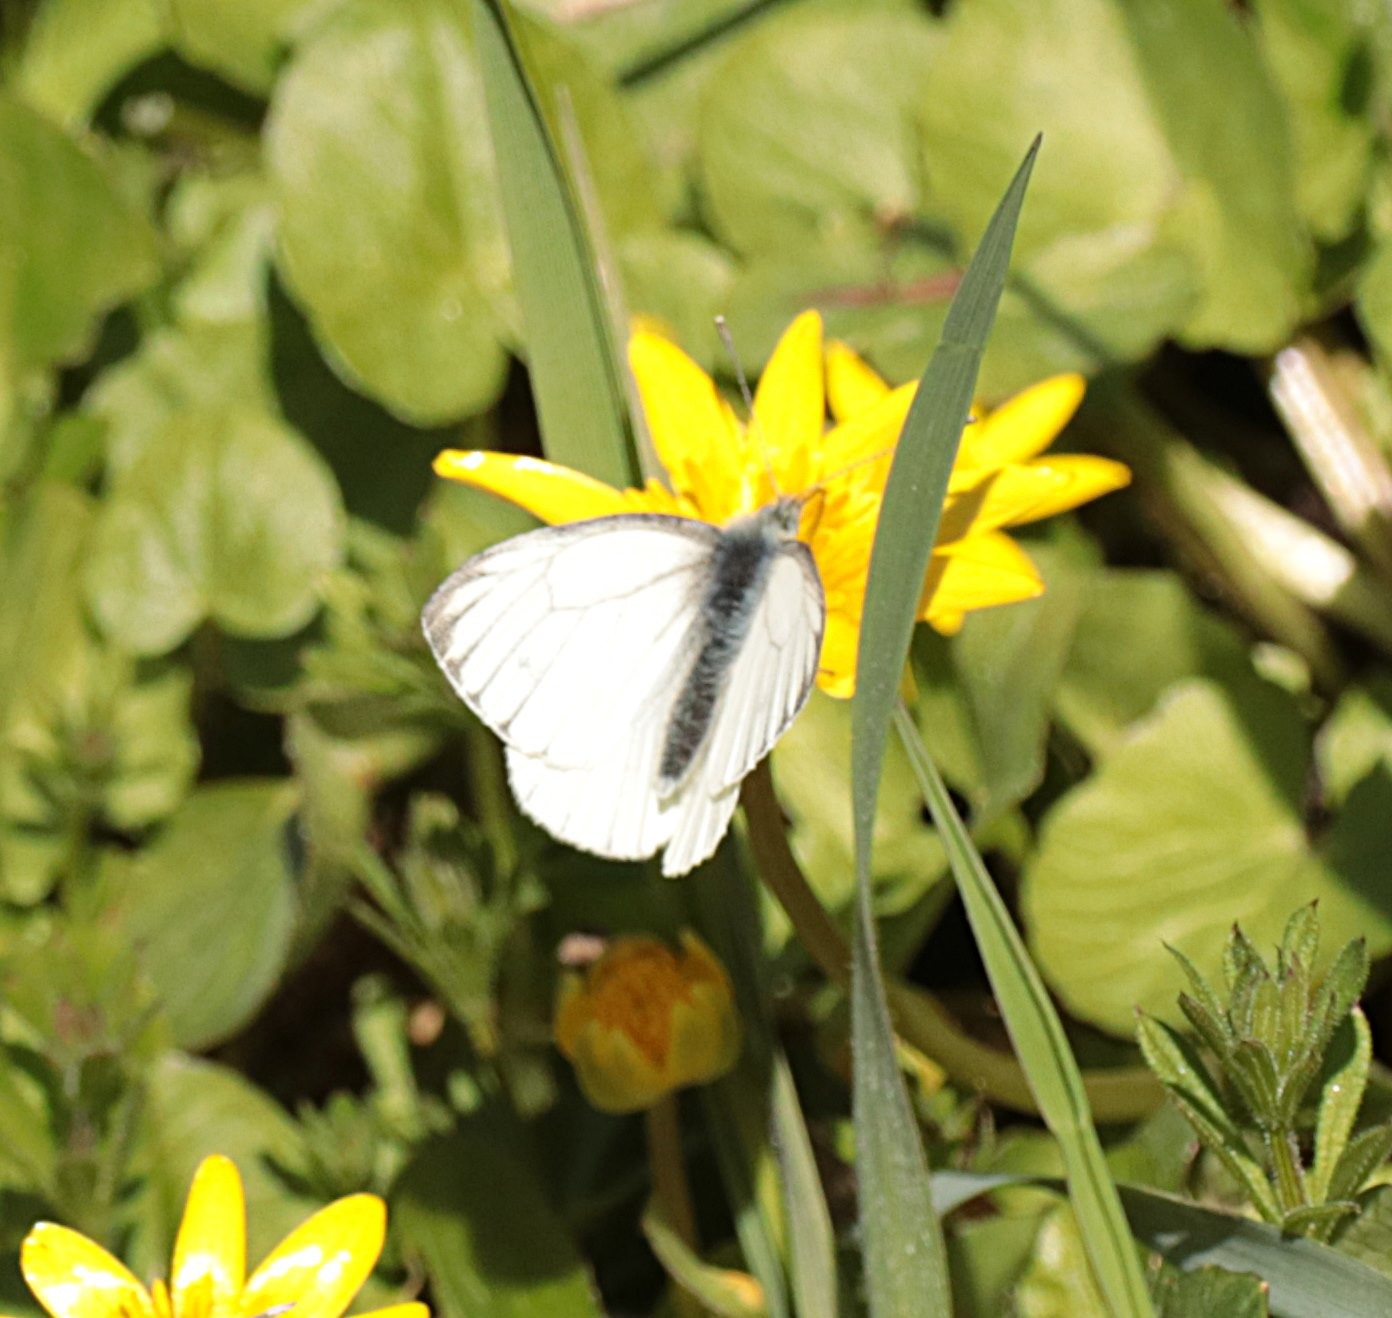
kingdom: Animalia
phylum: Arthropoda
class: Insecta
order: Lepidoptera
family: Pieridae
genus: Pieris
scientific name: Pieris napi
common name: Grønåret kålsommerfugl
